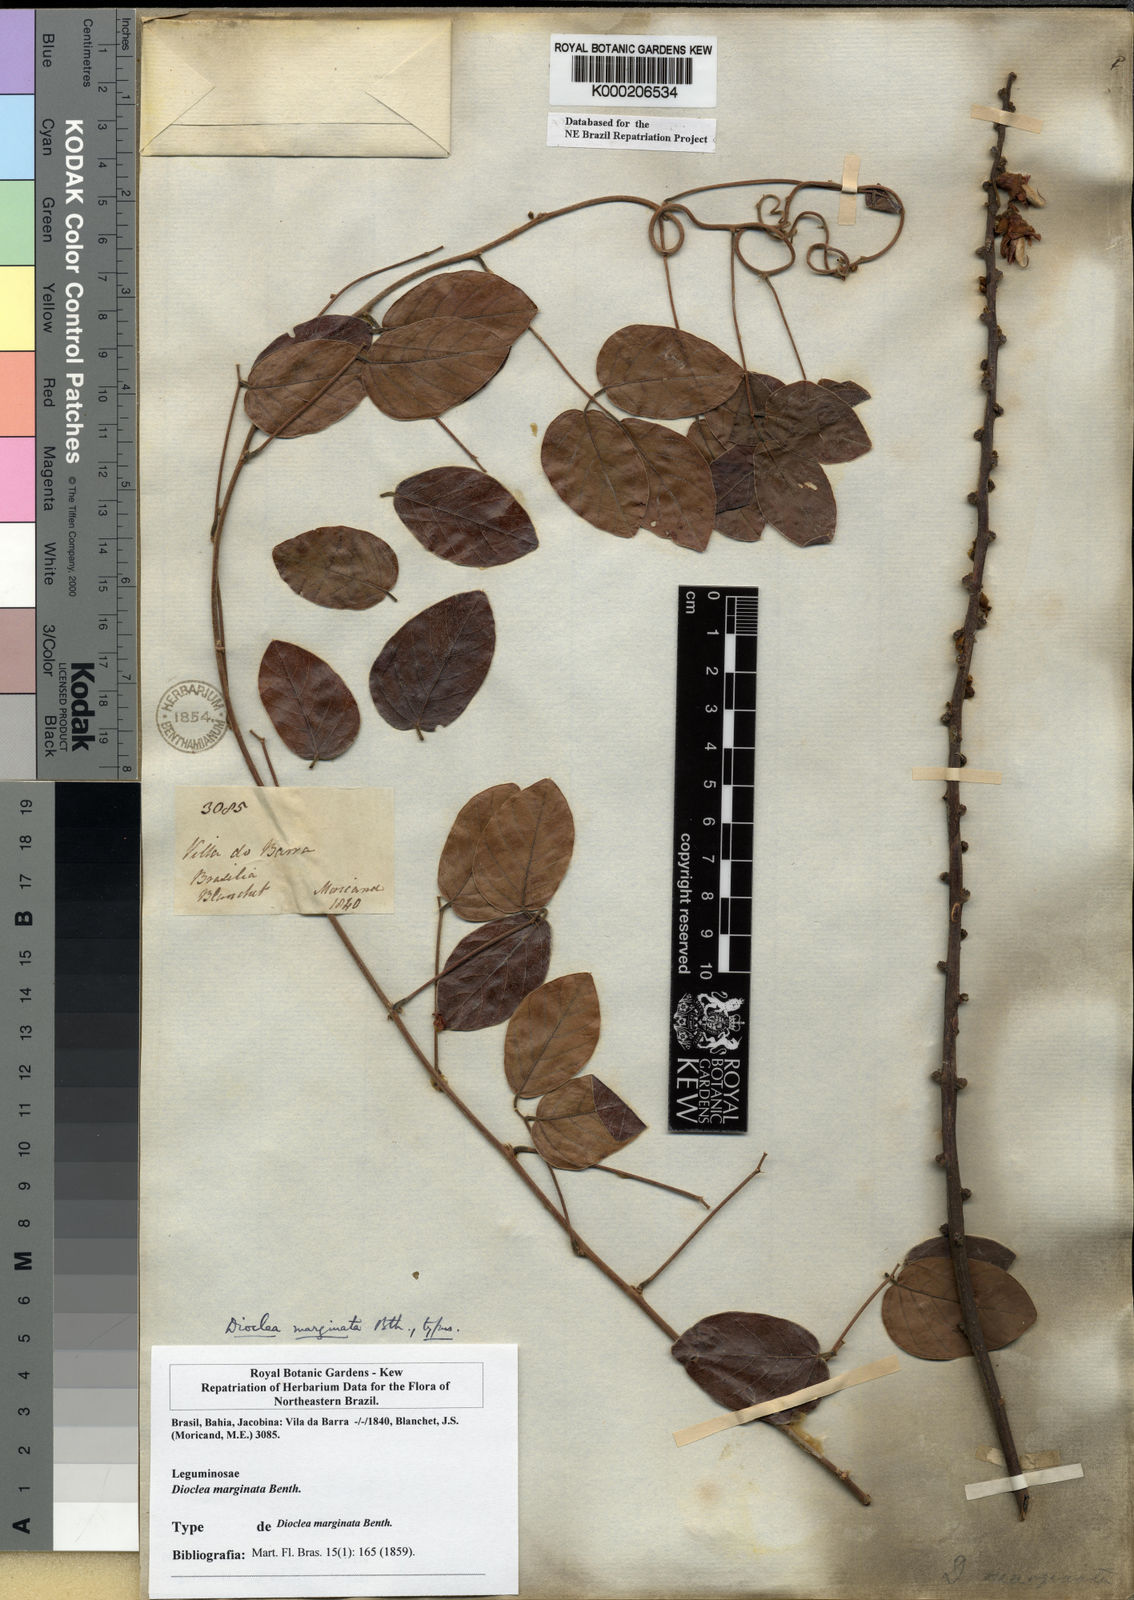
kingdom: Plantae
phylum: Tracheophyta
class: Magnoliopsida
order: Fabales
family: Fabaceae
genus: Macropsychanthus
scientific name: Macropsychanthus marginatus
